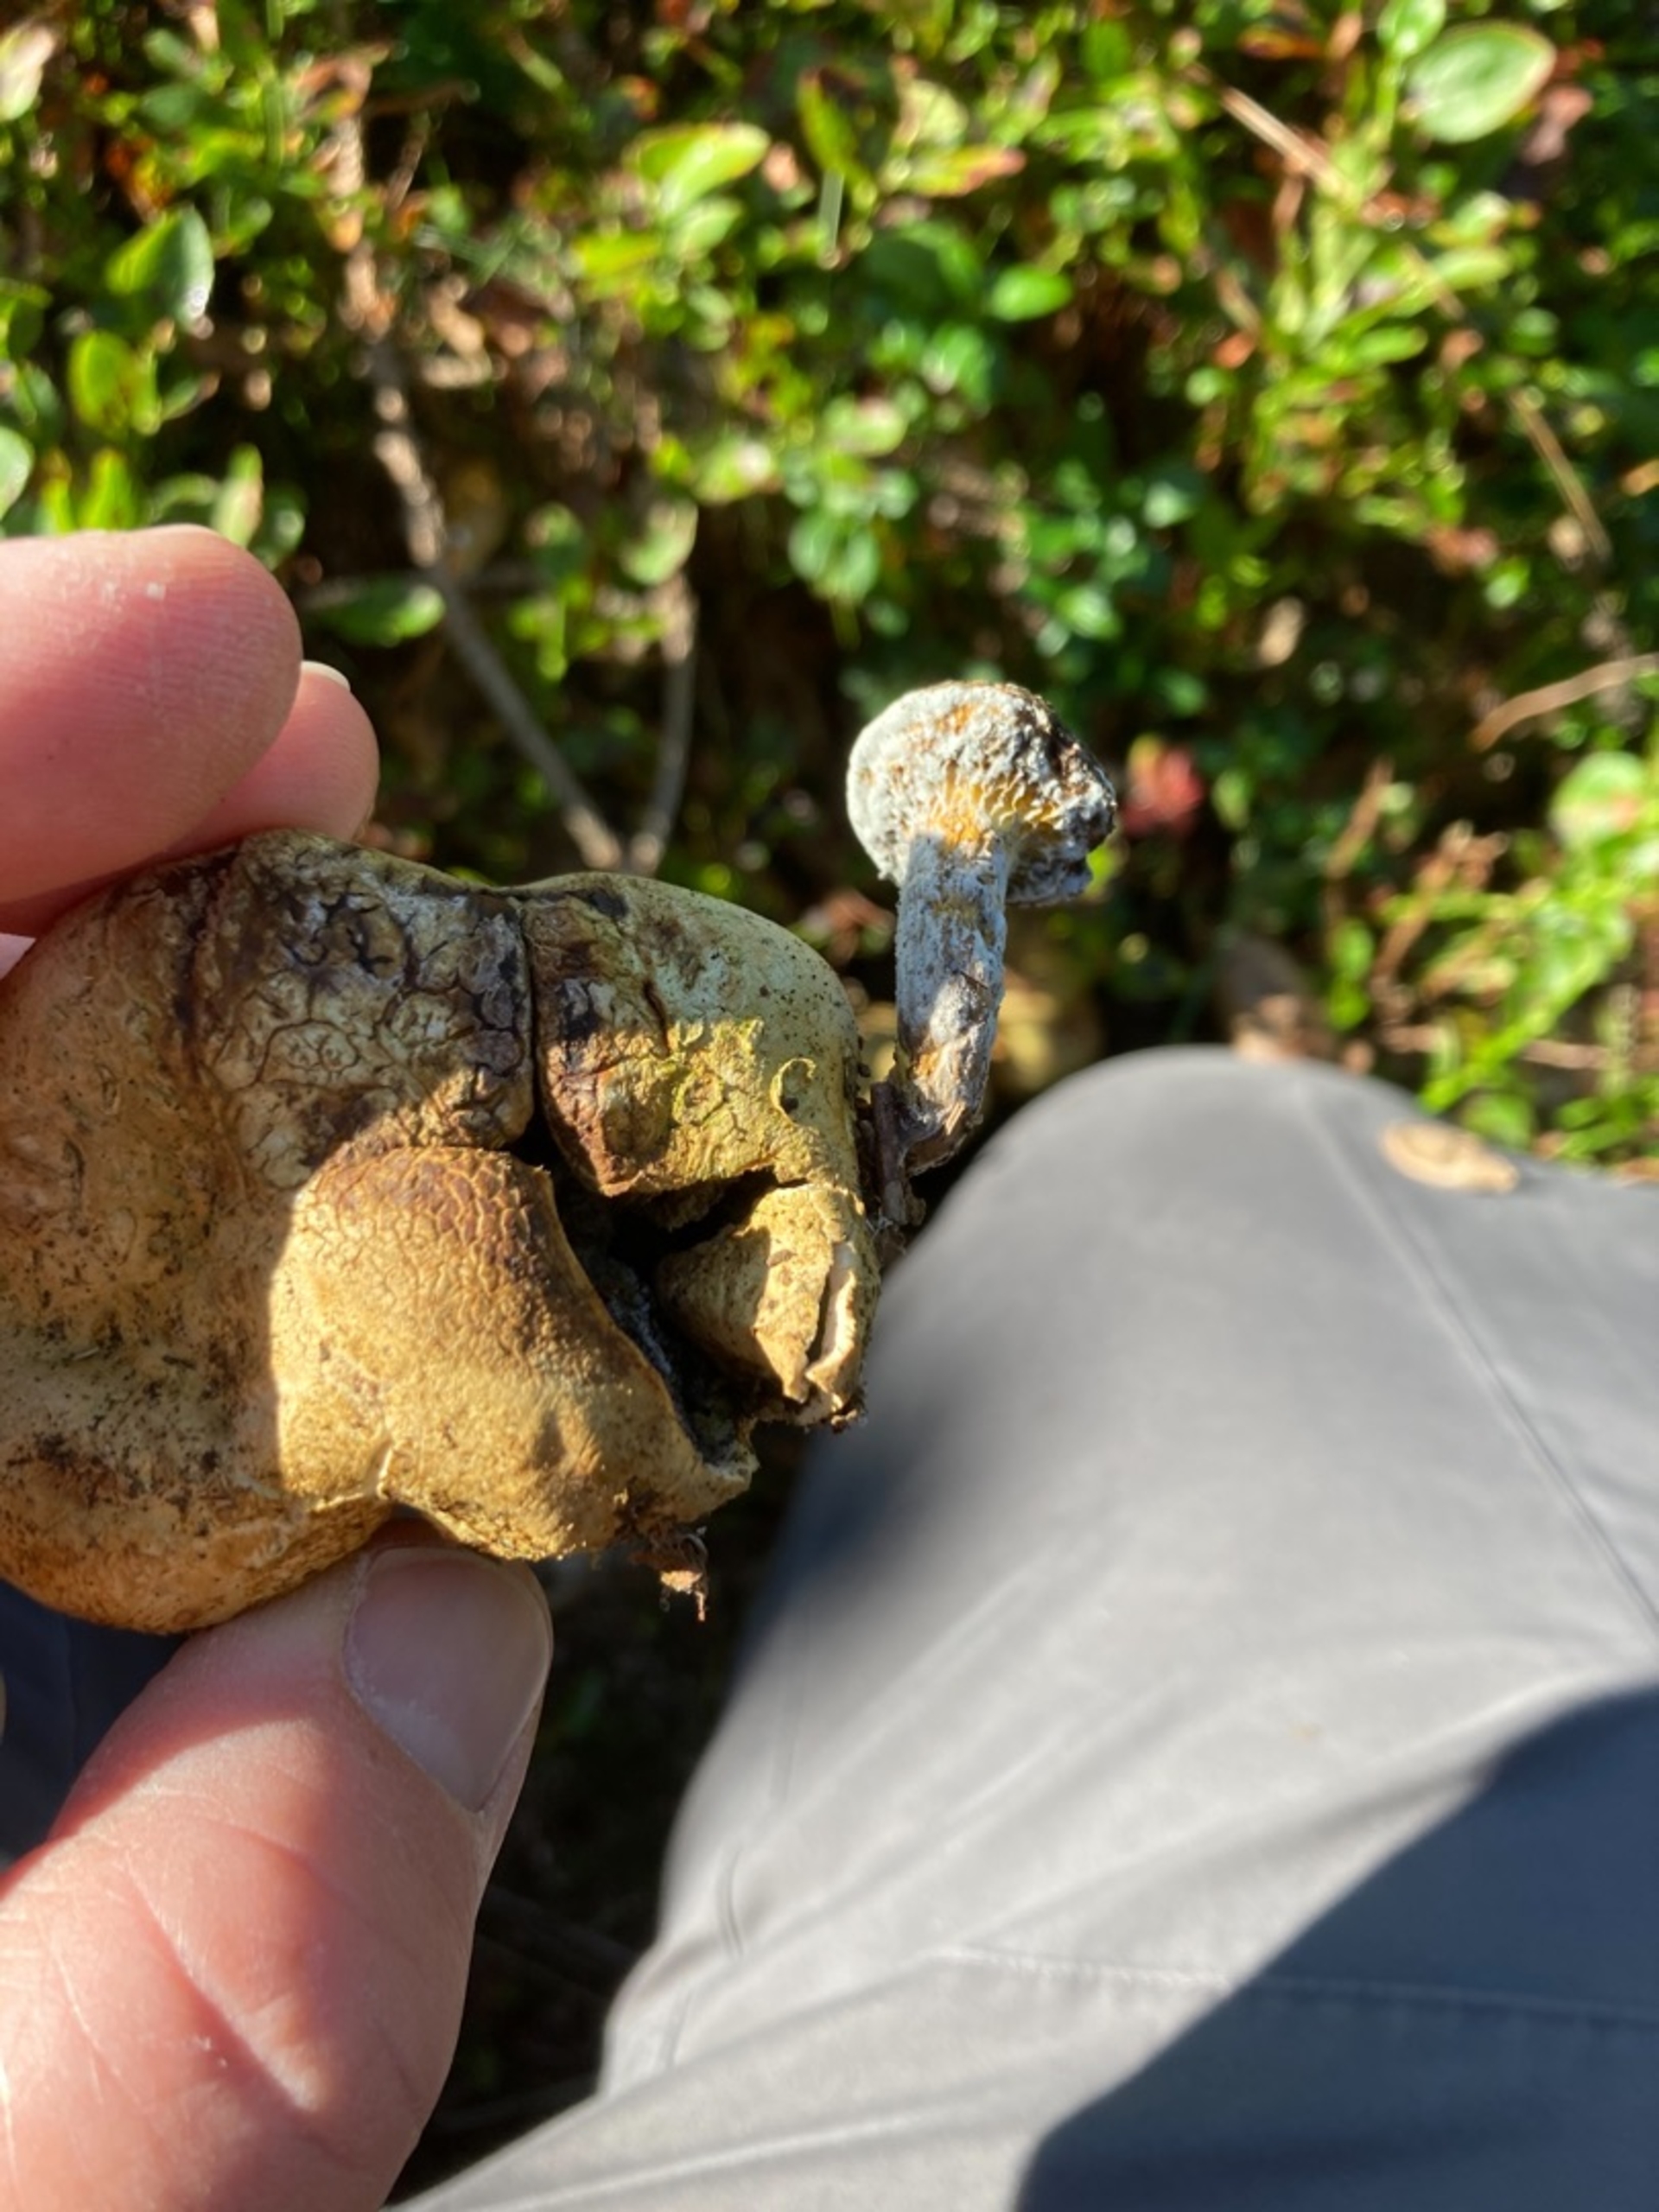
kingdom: Fungi
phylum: Basidiomycota
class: Agaricomycetes
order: Boletales
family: Boletaceae
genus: Pseudoboletus
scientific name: Pseudoboletus parasiticus
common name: Snyltende rørhat
